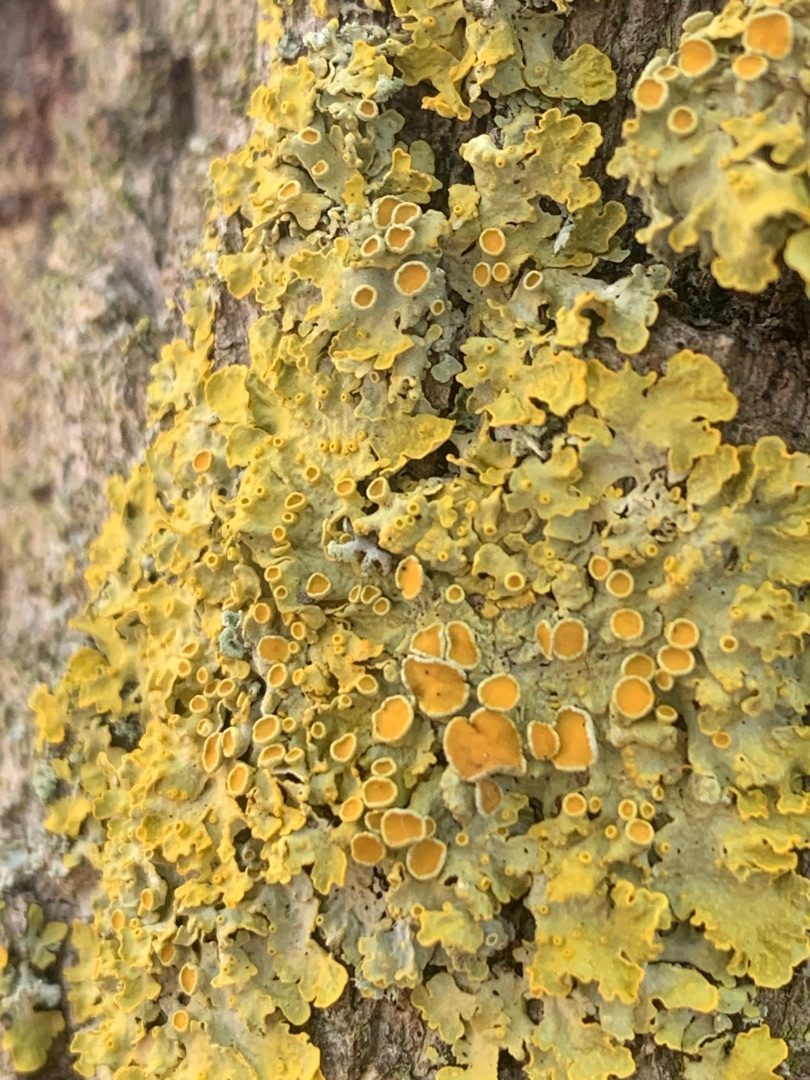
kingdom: Fungi
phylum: Ascomycota
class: Lecanoromycetes
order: Teloschistales
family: Teloschistaceae
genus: Xanthoria
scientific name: Xanthoria parietina
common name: Almindelig væggelav
